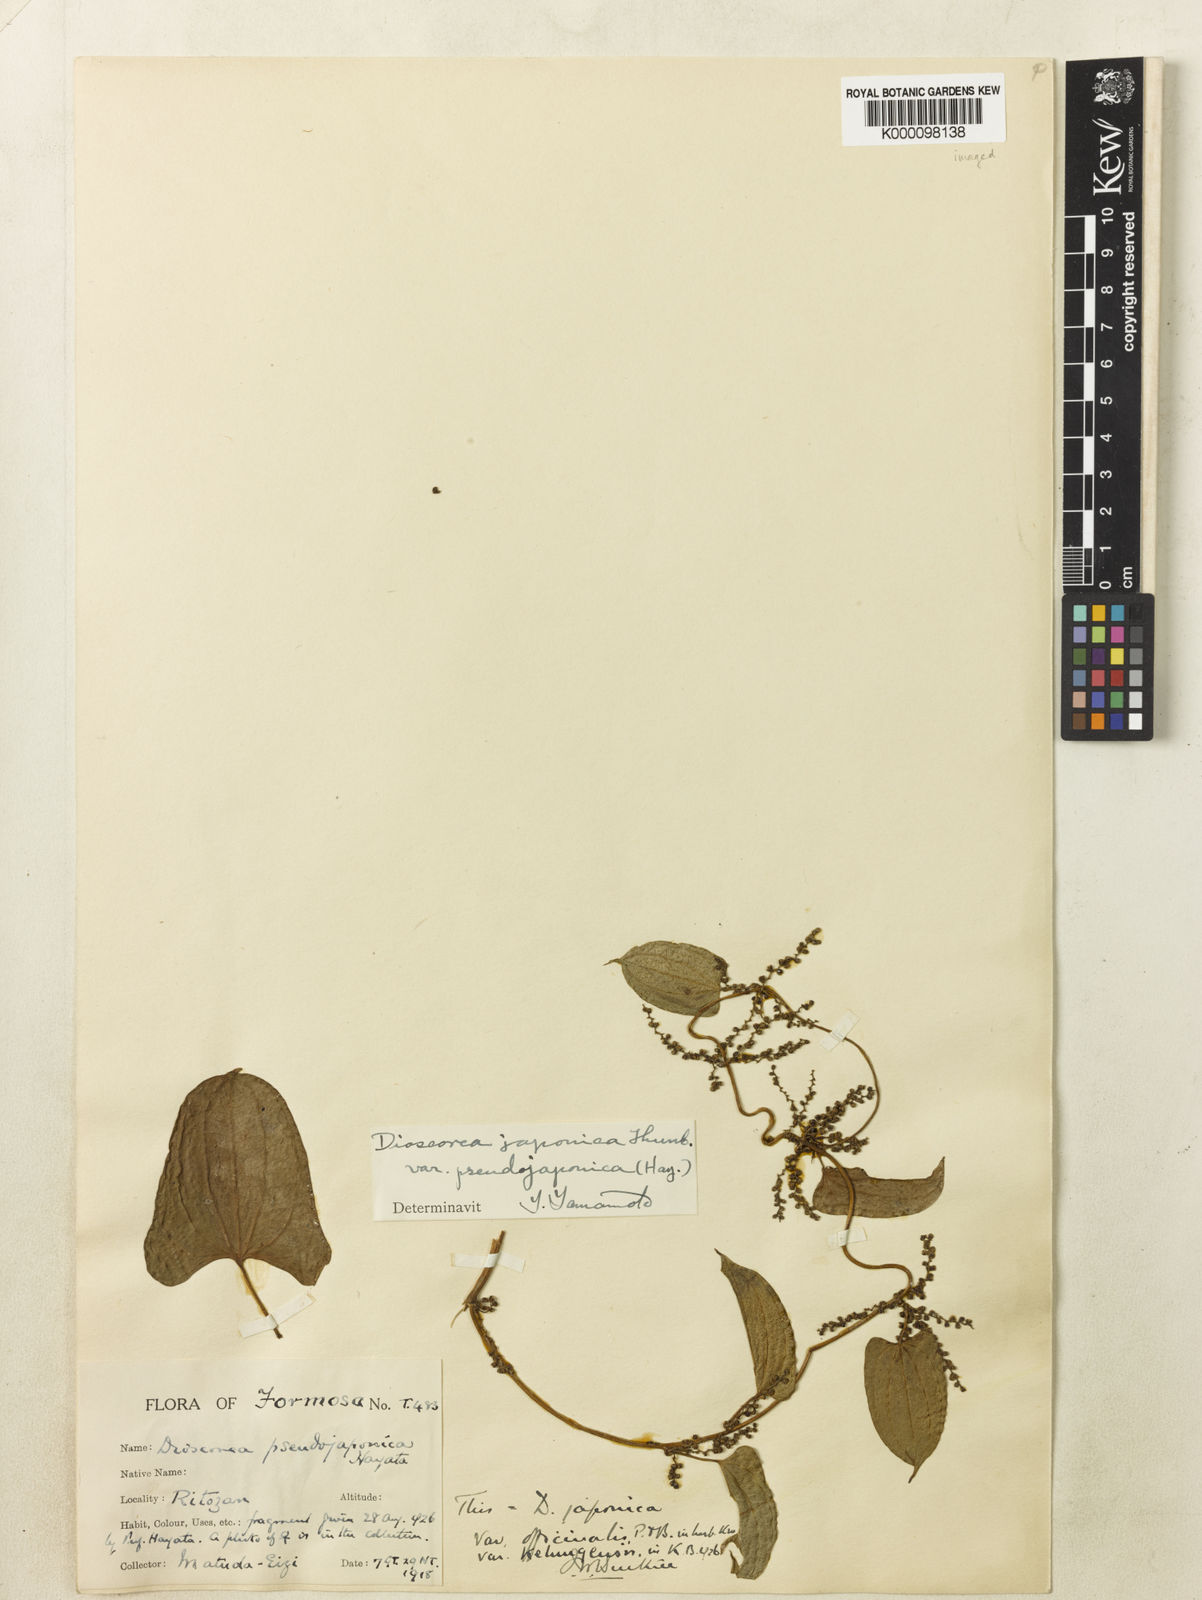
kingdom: Plantae
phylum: Tracheophyta
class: Liliopsida
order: Dioscoreales
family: Dioscoreaceae
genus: Dioscorea
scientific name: Dioscorea japonica
